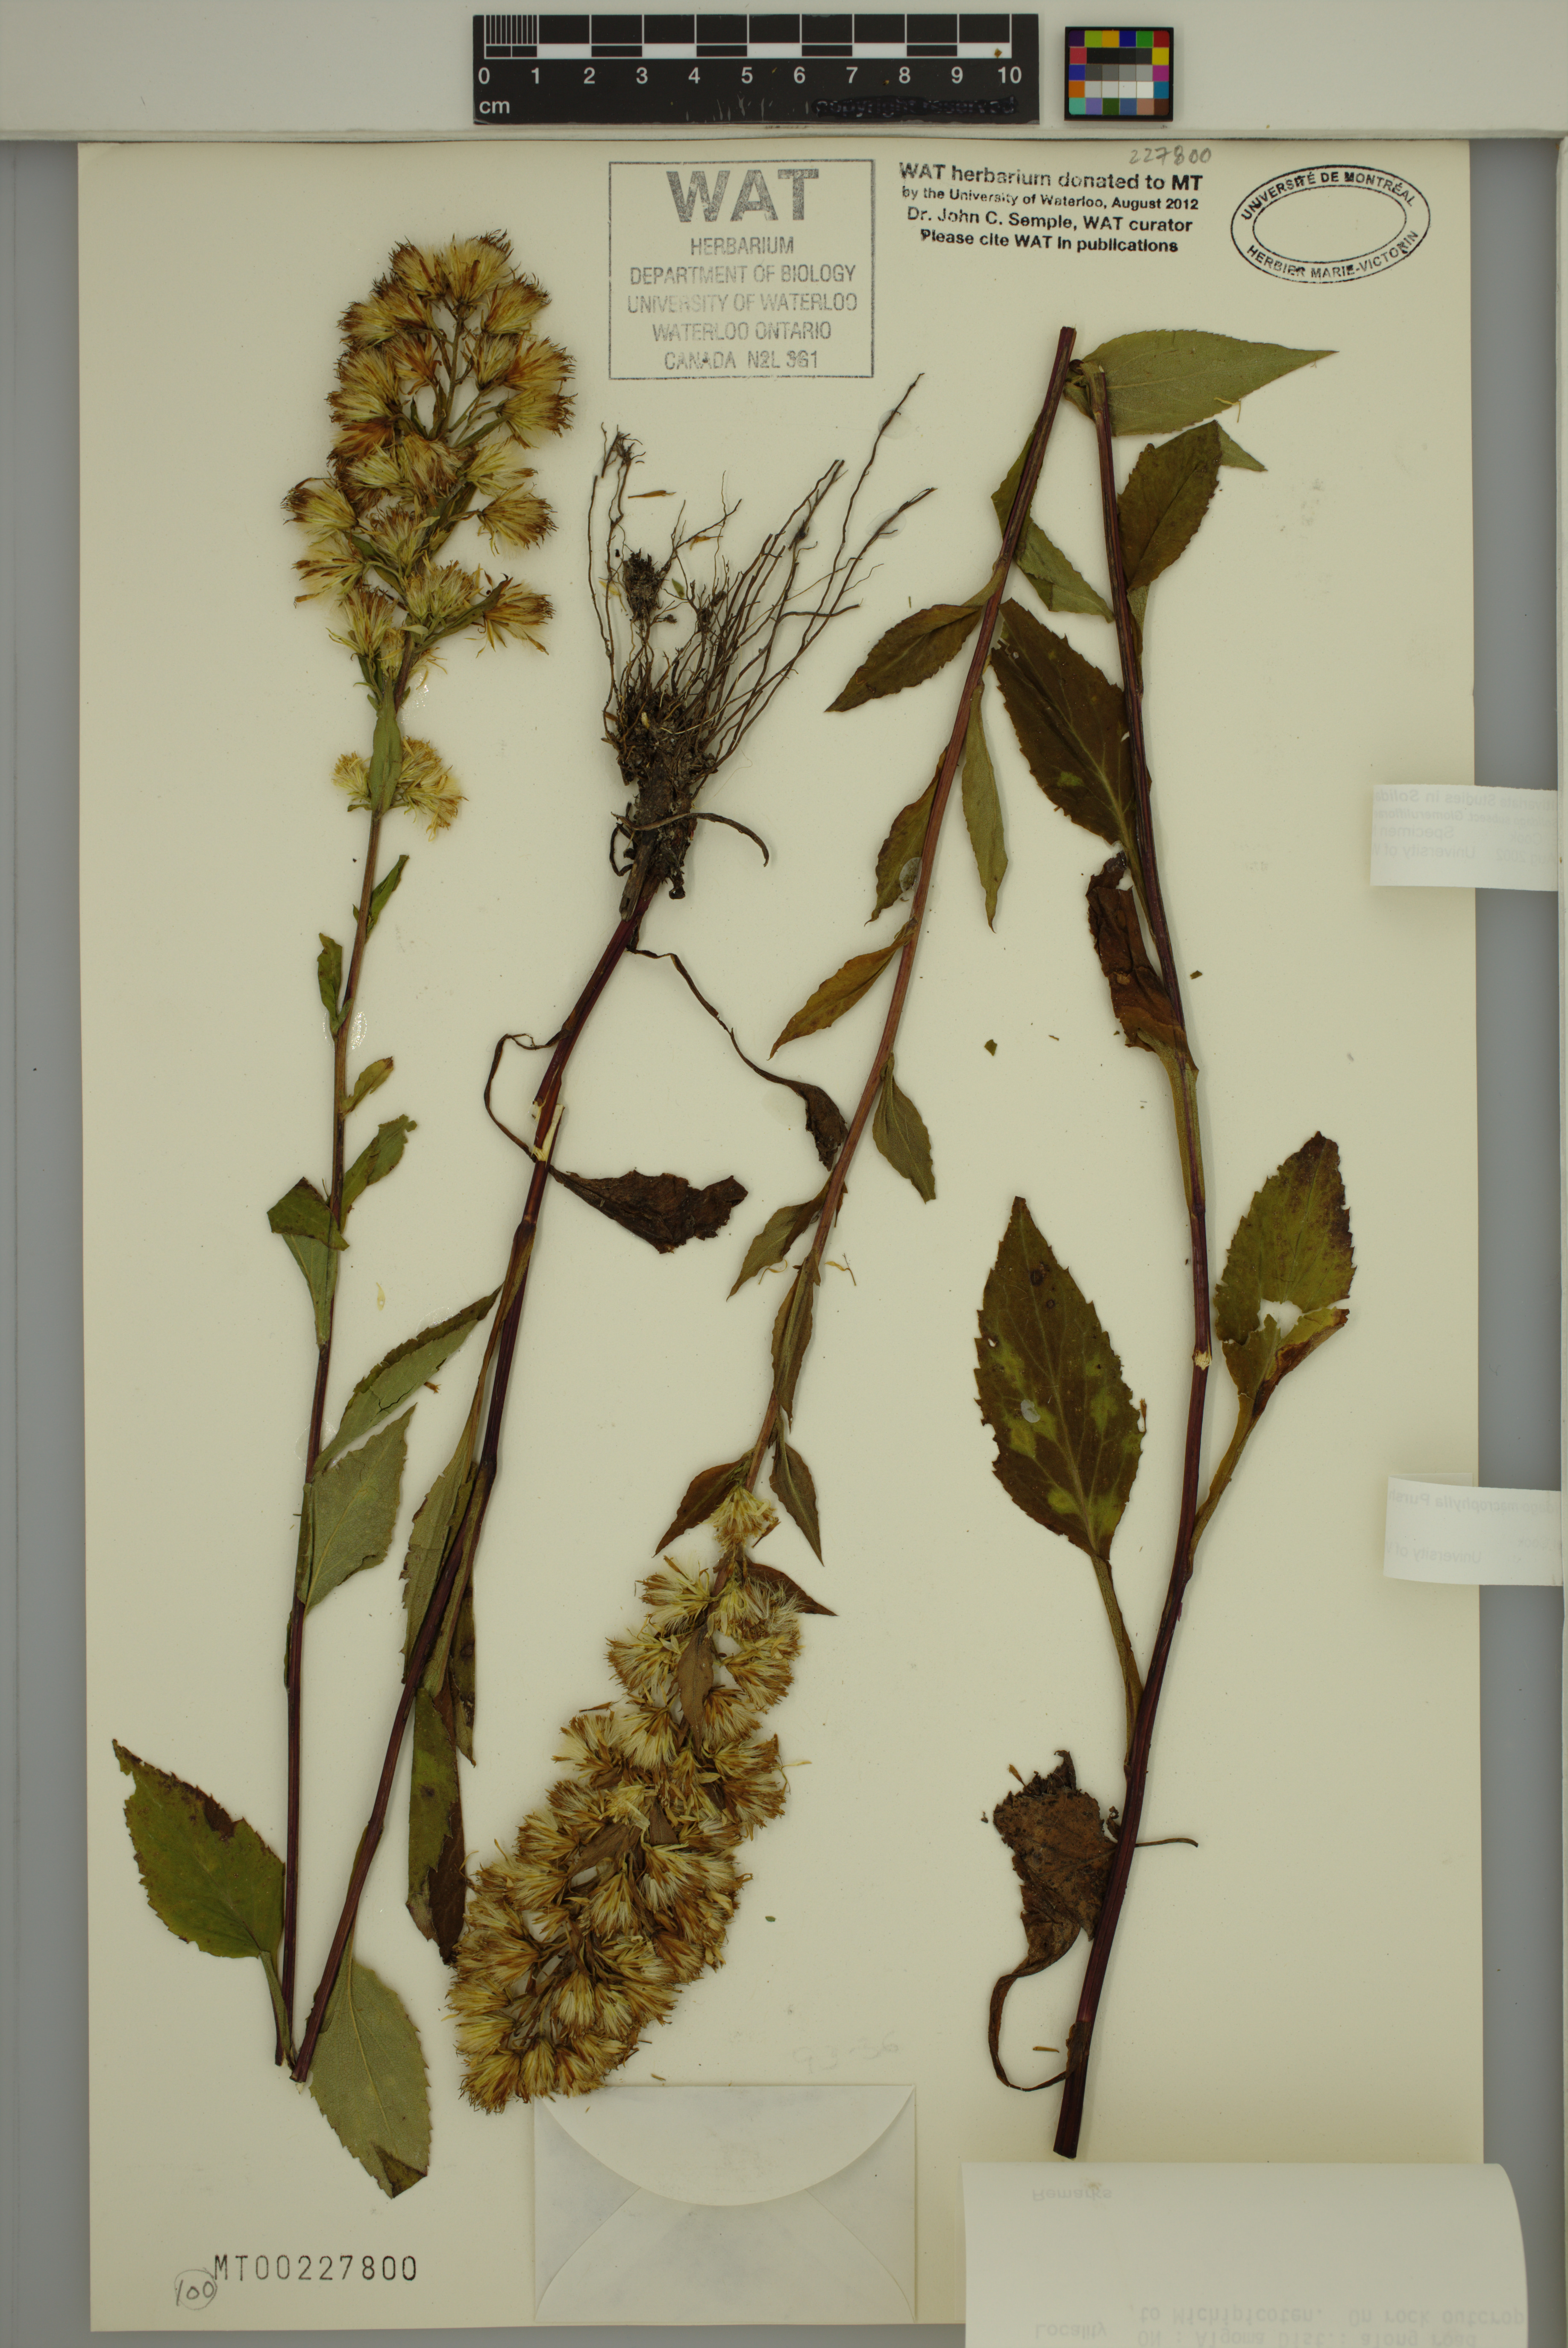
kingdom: Plantae
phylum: Tracheophyta
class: Magnoliopsida
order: Asterales
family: Asteraceae
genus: Solidago
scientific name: Solidago macrophylla
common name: Large-leaved goldenrod
